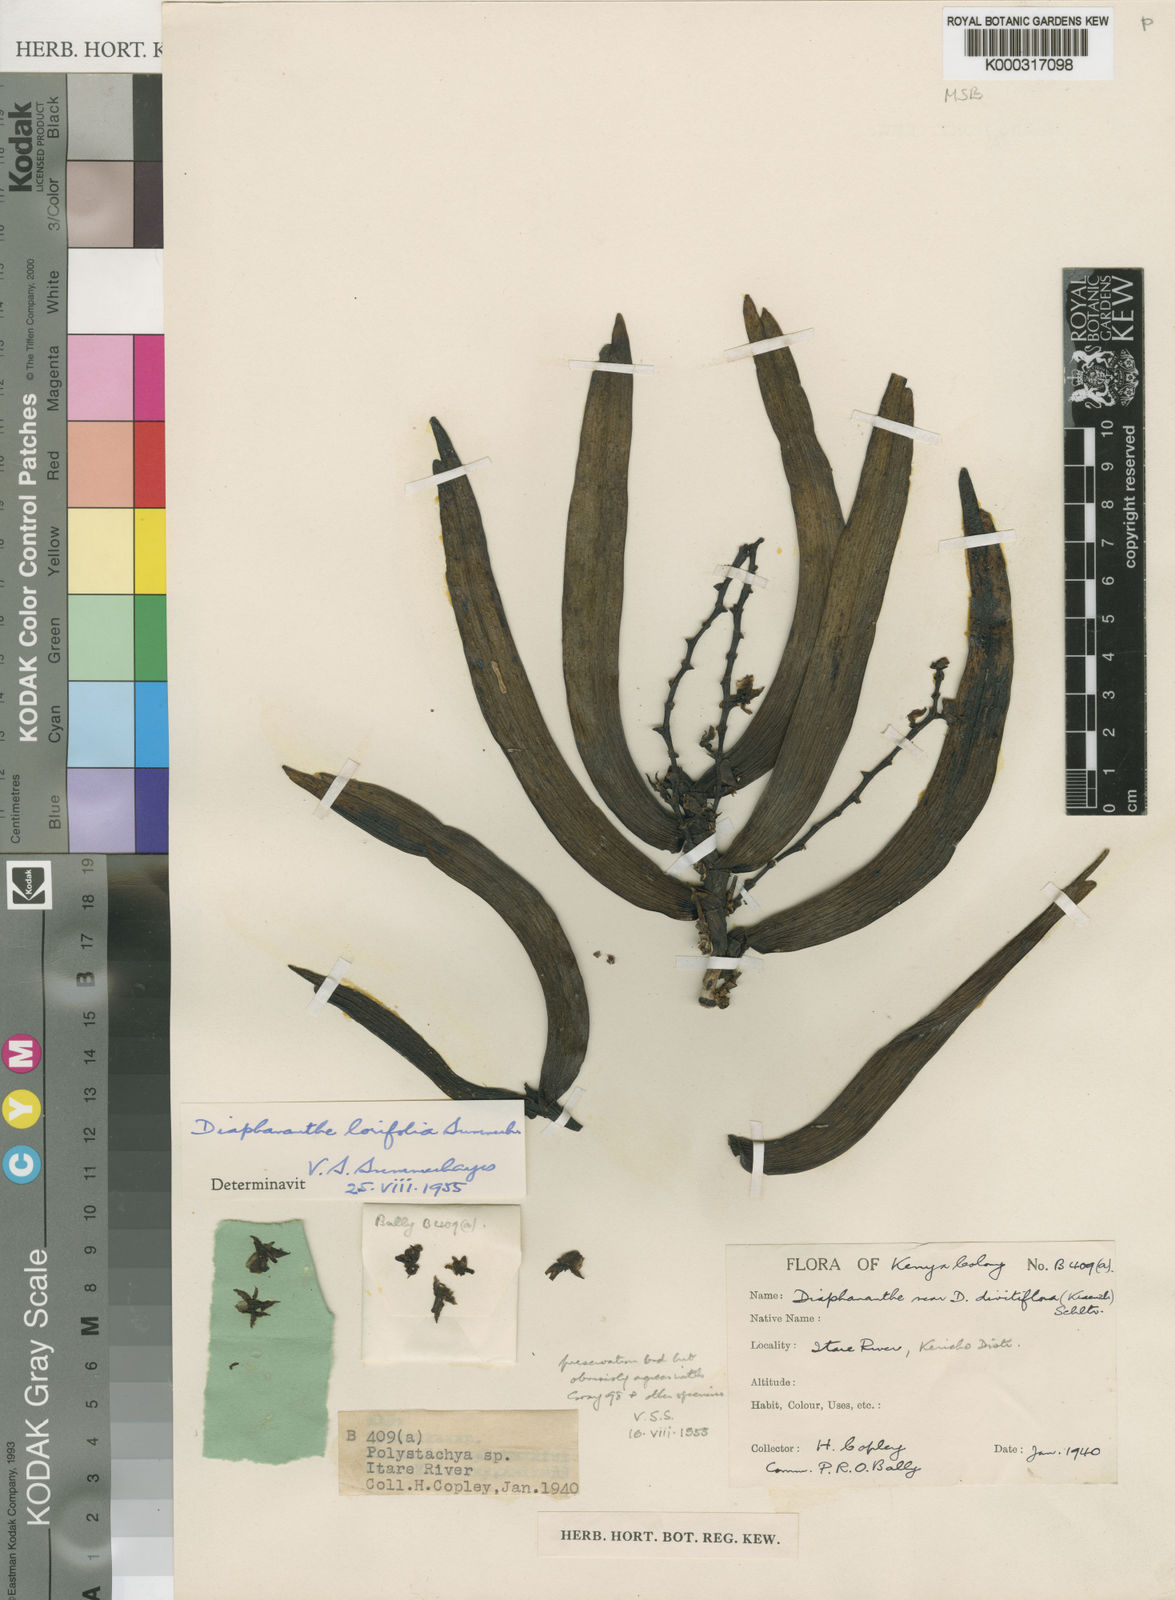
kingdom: Plantae
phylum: Tracheophyta
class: Liliopsida
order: Asparagales
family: Orchidaceae
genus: Diaphananthe
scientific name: Diaphananthe lorifolia
